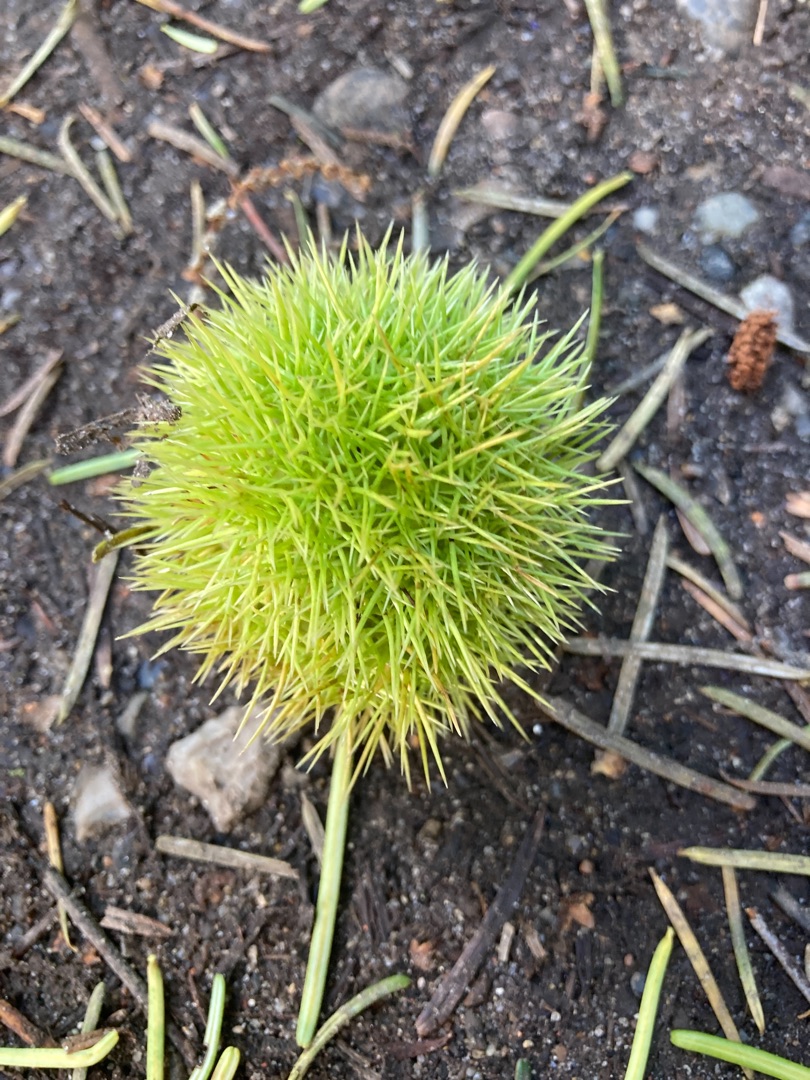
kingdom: Plantae
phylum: Tracheophyta
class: Magnoliopsida
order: Fagales
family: Fagaceae
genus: Castanea
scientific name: Castanea sativa
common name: Ægte kastanie
